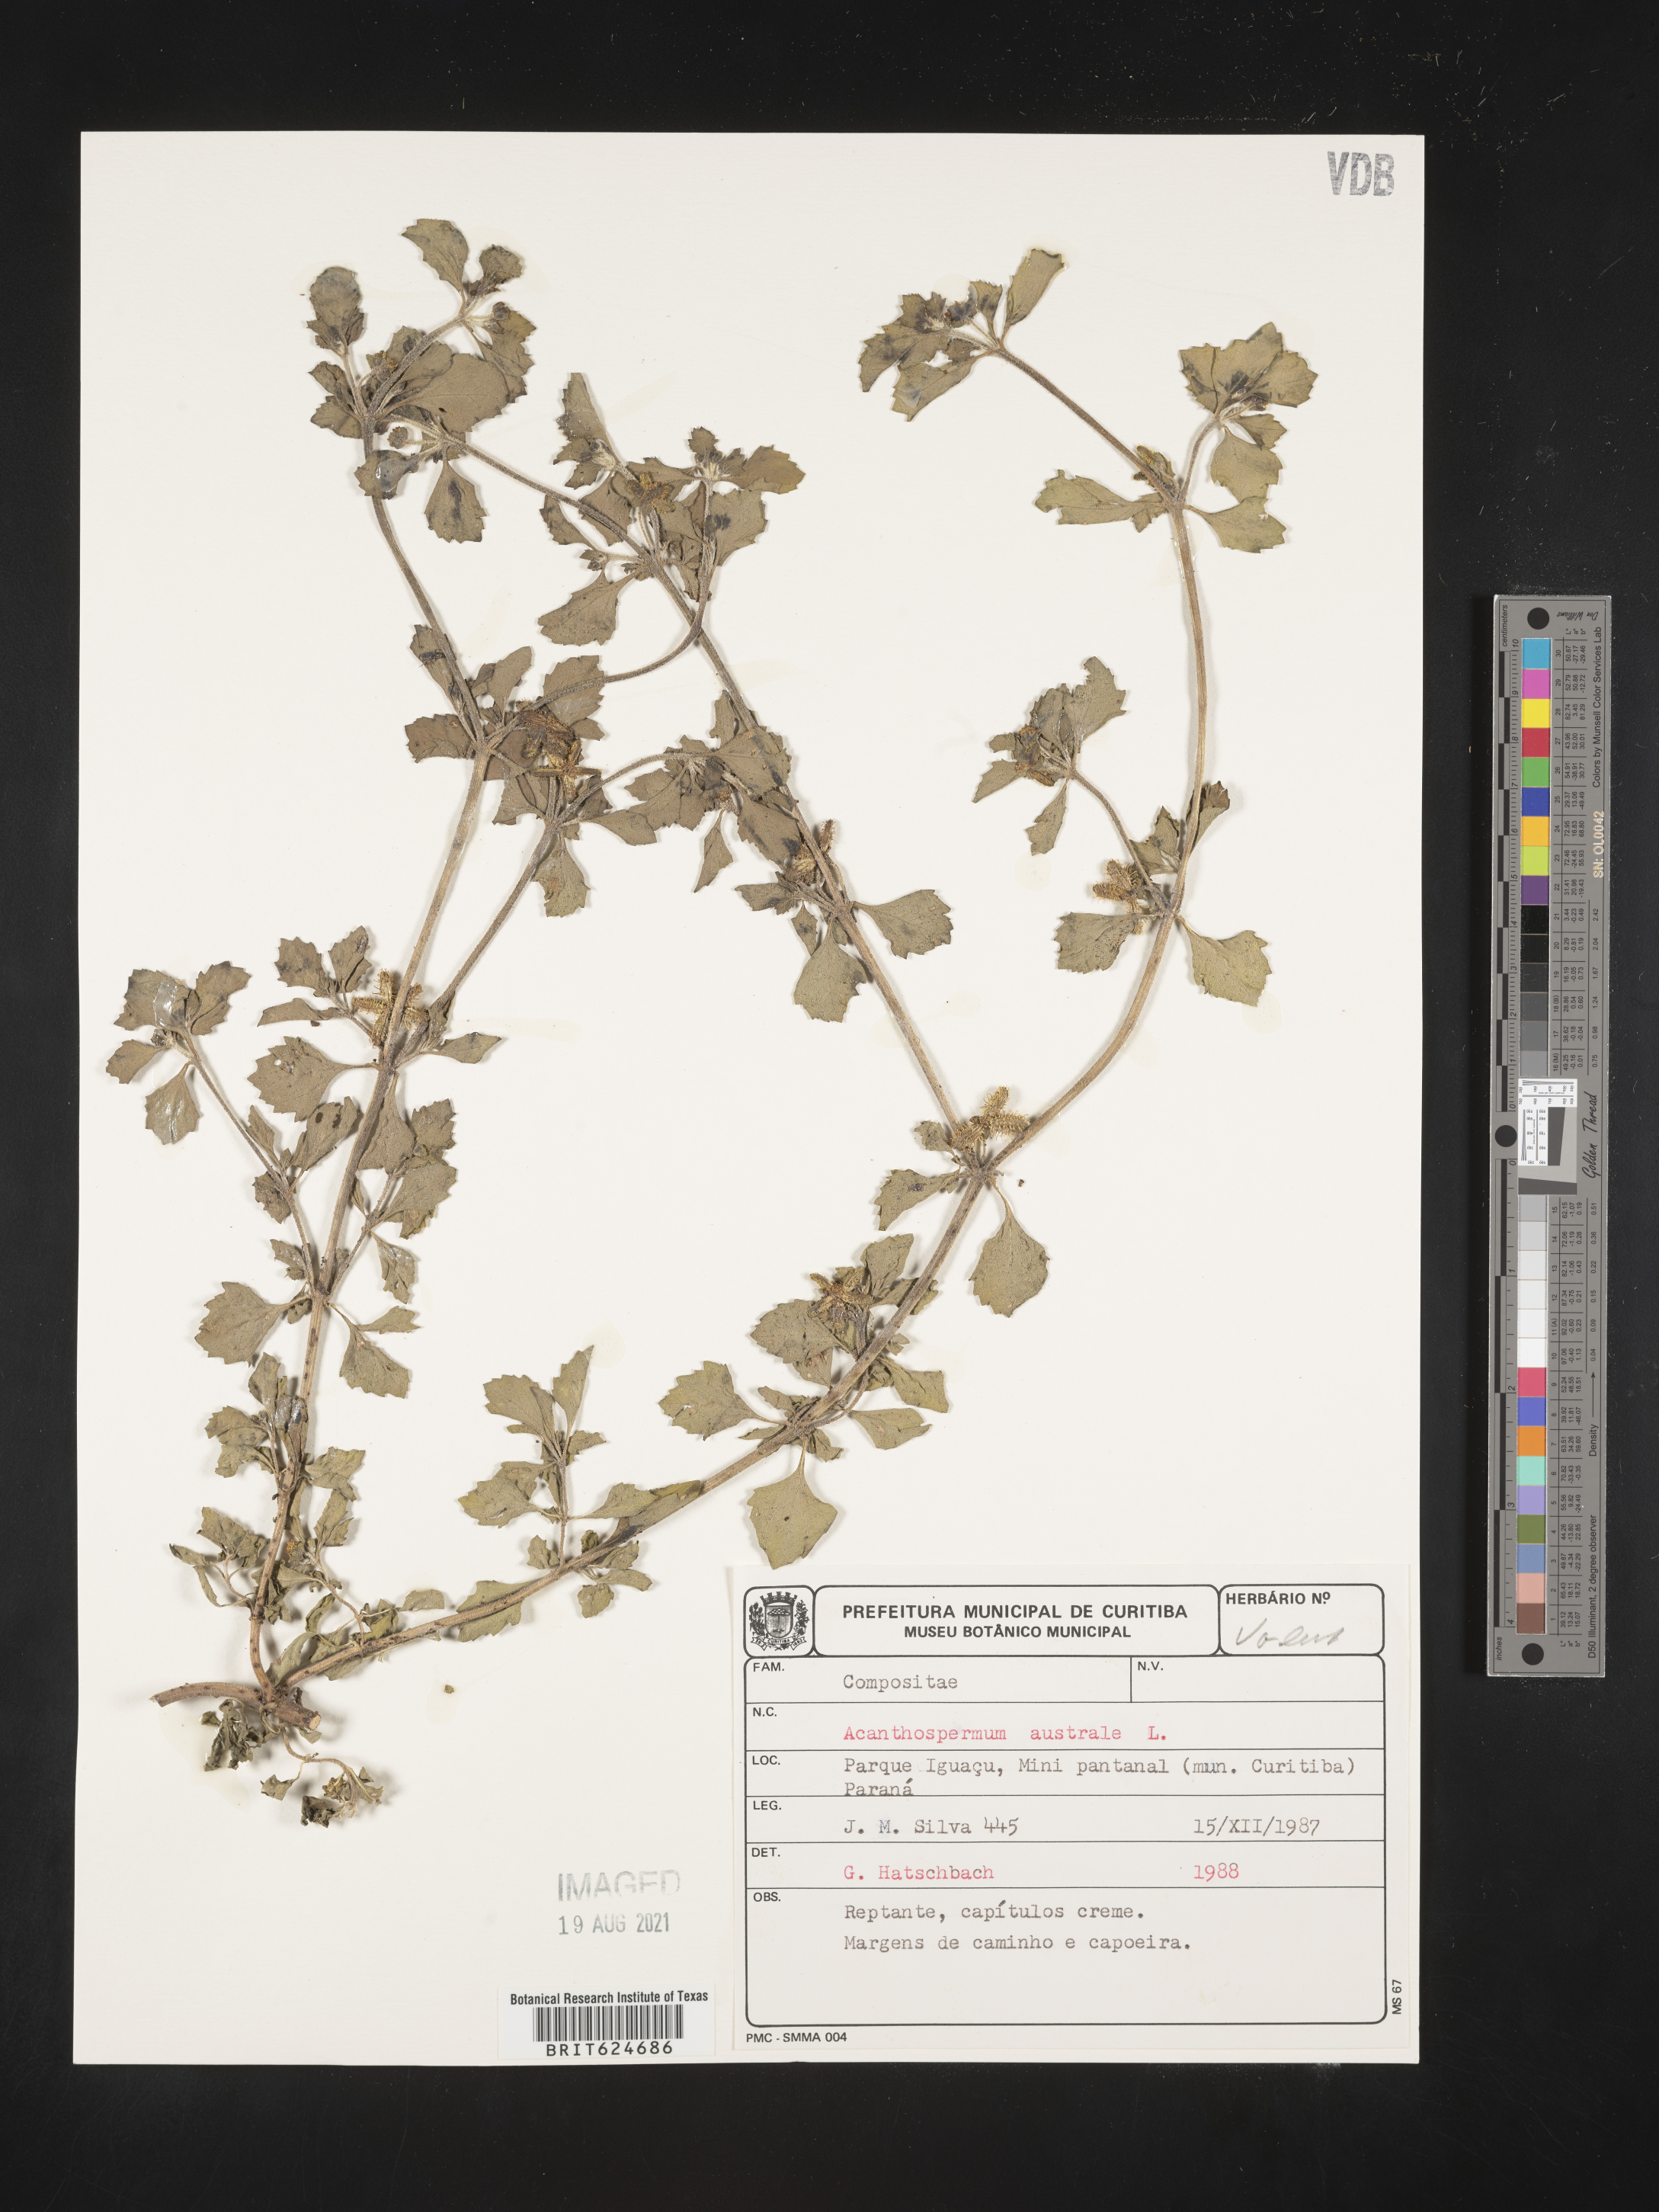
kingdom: Plantae
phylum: Tracheophyta
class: Magnoliopsida
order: Asterales
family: Asteraceae
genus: Acanthospermum
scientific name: Acanthospermum australe
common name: Paraguayan starbur
